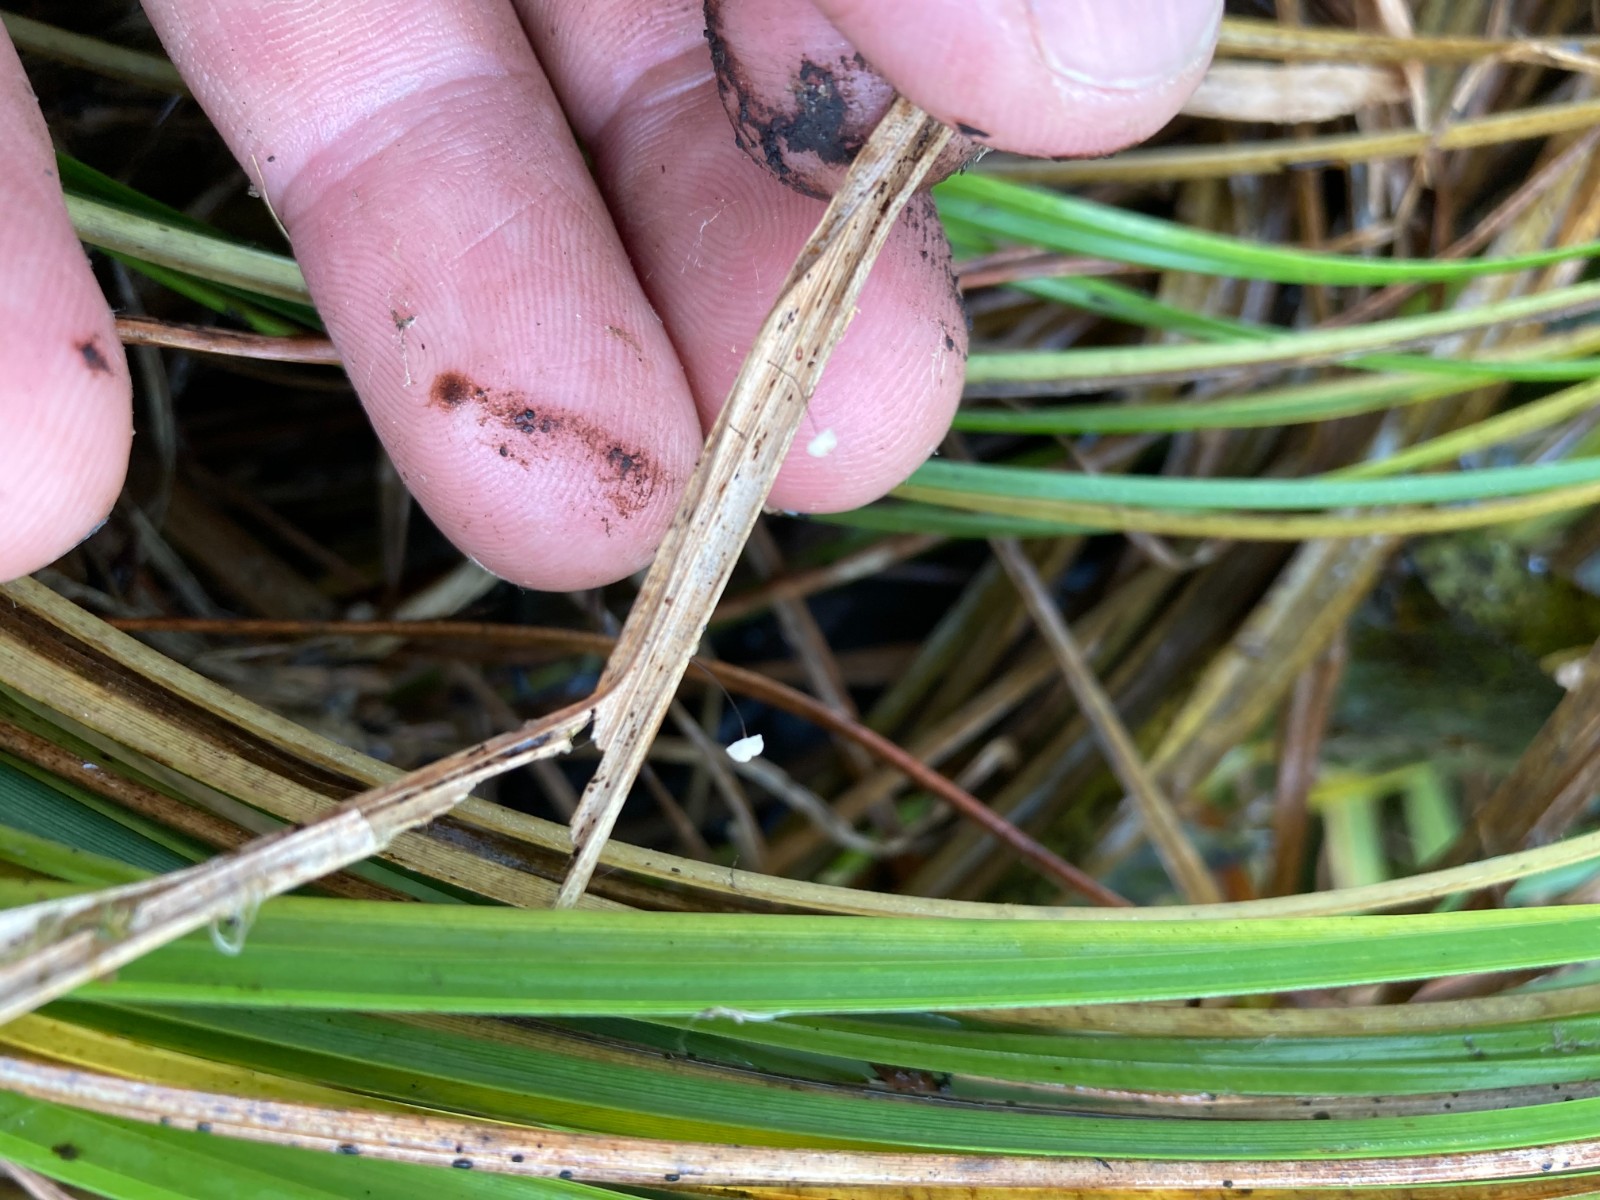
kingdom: Fungi
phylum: Basidiomycota
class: Agaricomycetes
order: Agaricales
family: Marasmiaceae
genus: Marasmius
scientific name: Marasmius limosus
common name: kær-bruskhat
